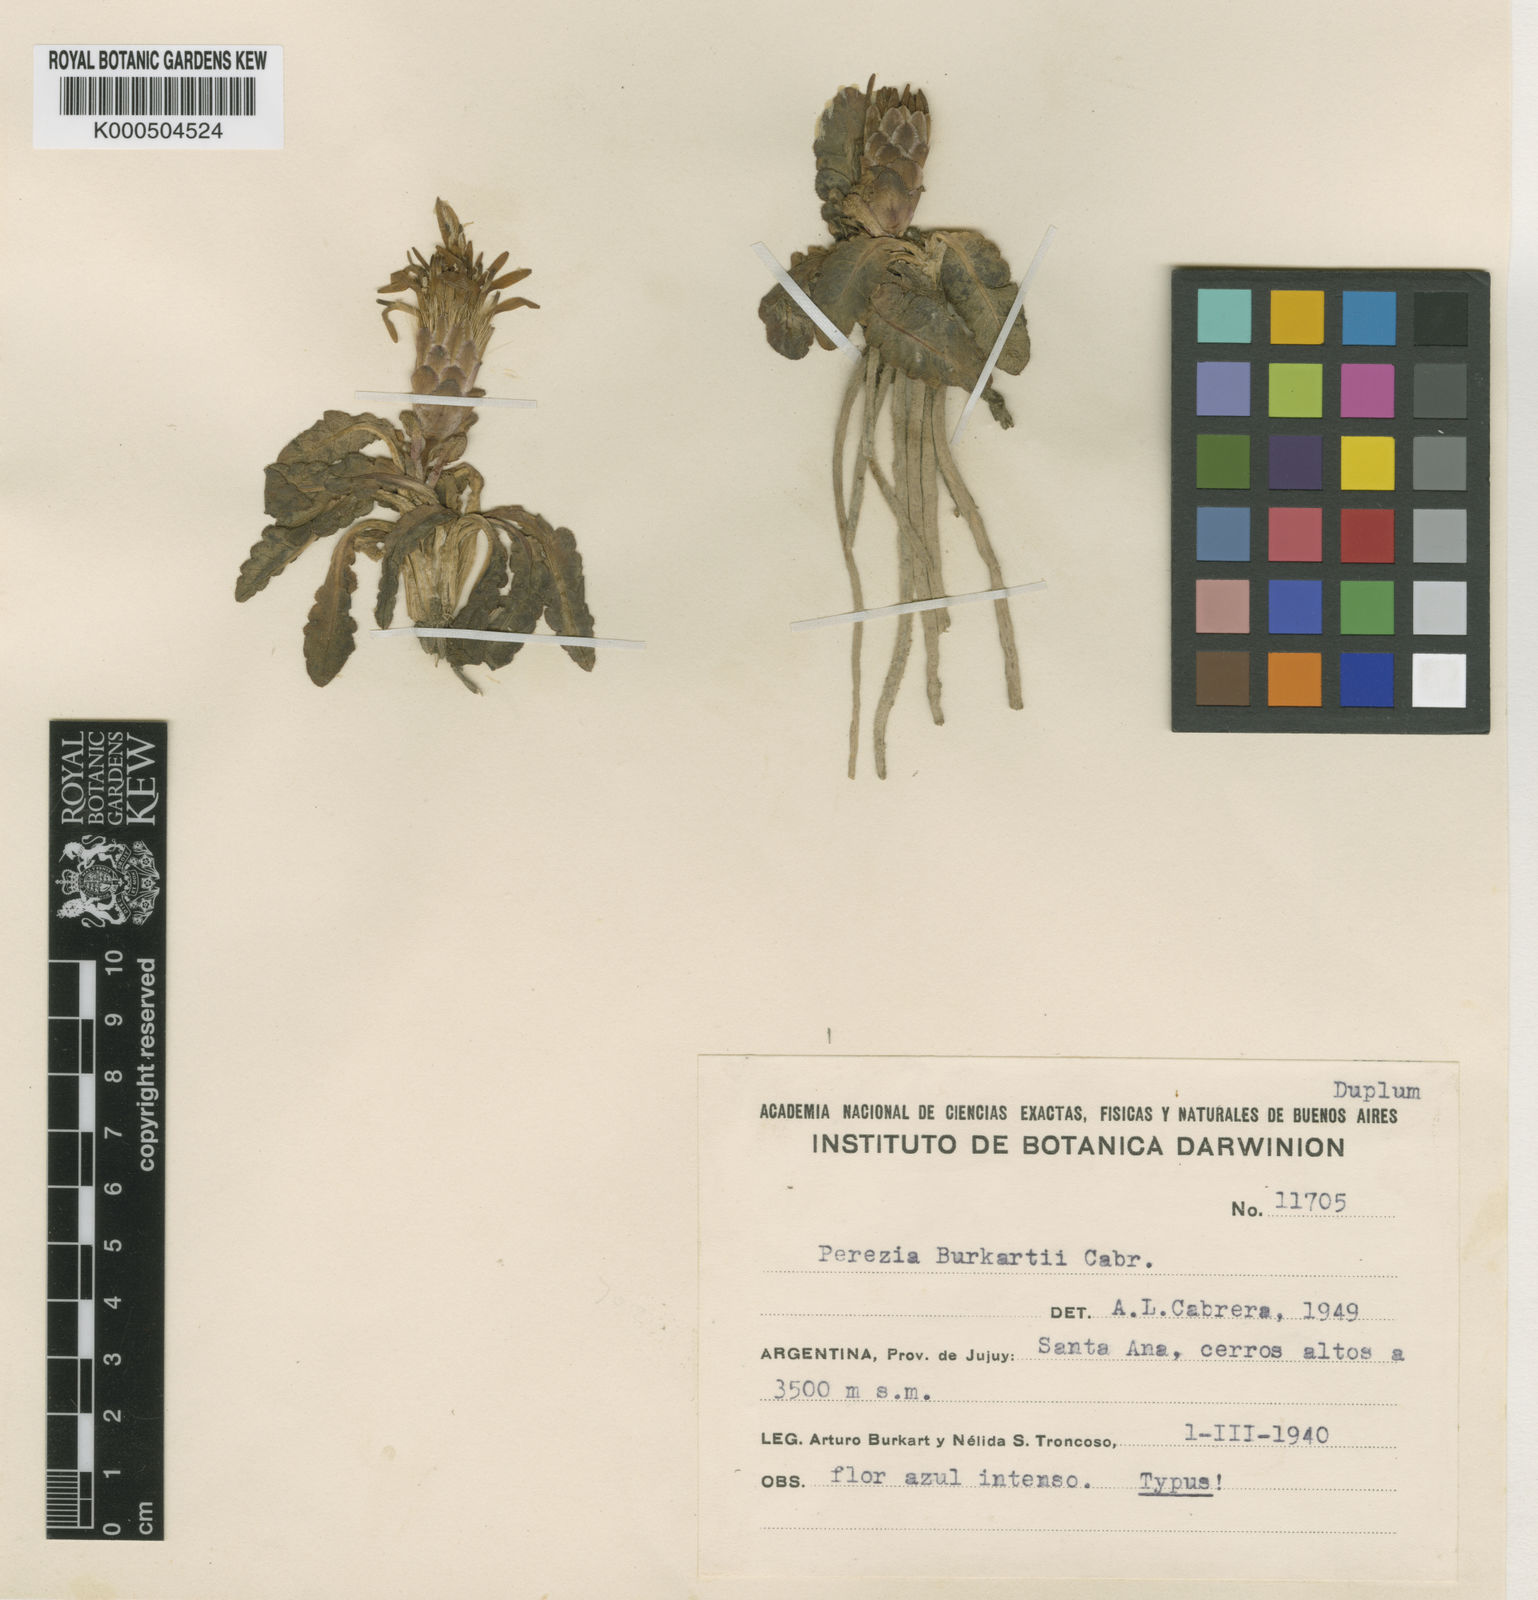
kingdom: Plantae
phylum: Tracheophyta
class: Magnoliopsida
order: Asterales
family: Asteraceae
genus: Perezia
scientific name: Perezia pinnatifida
